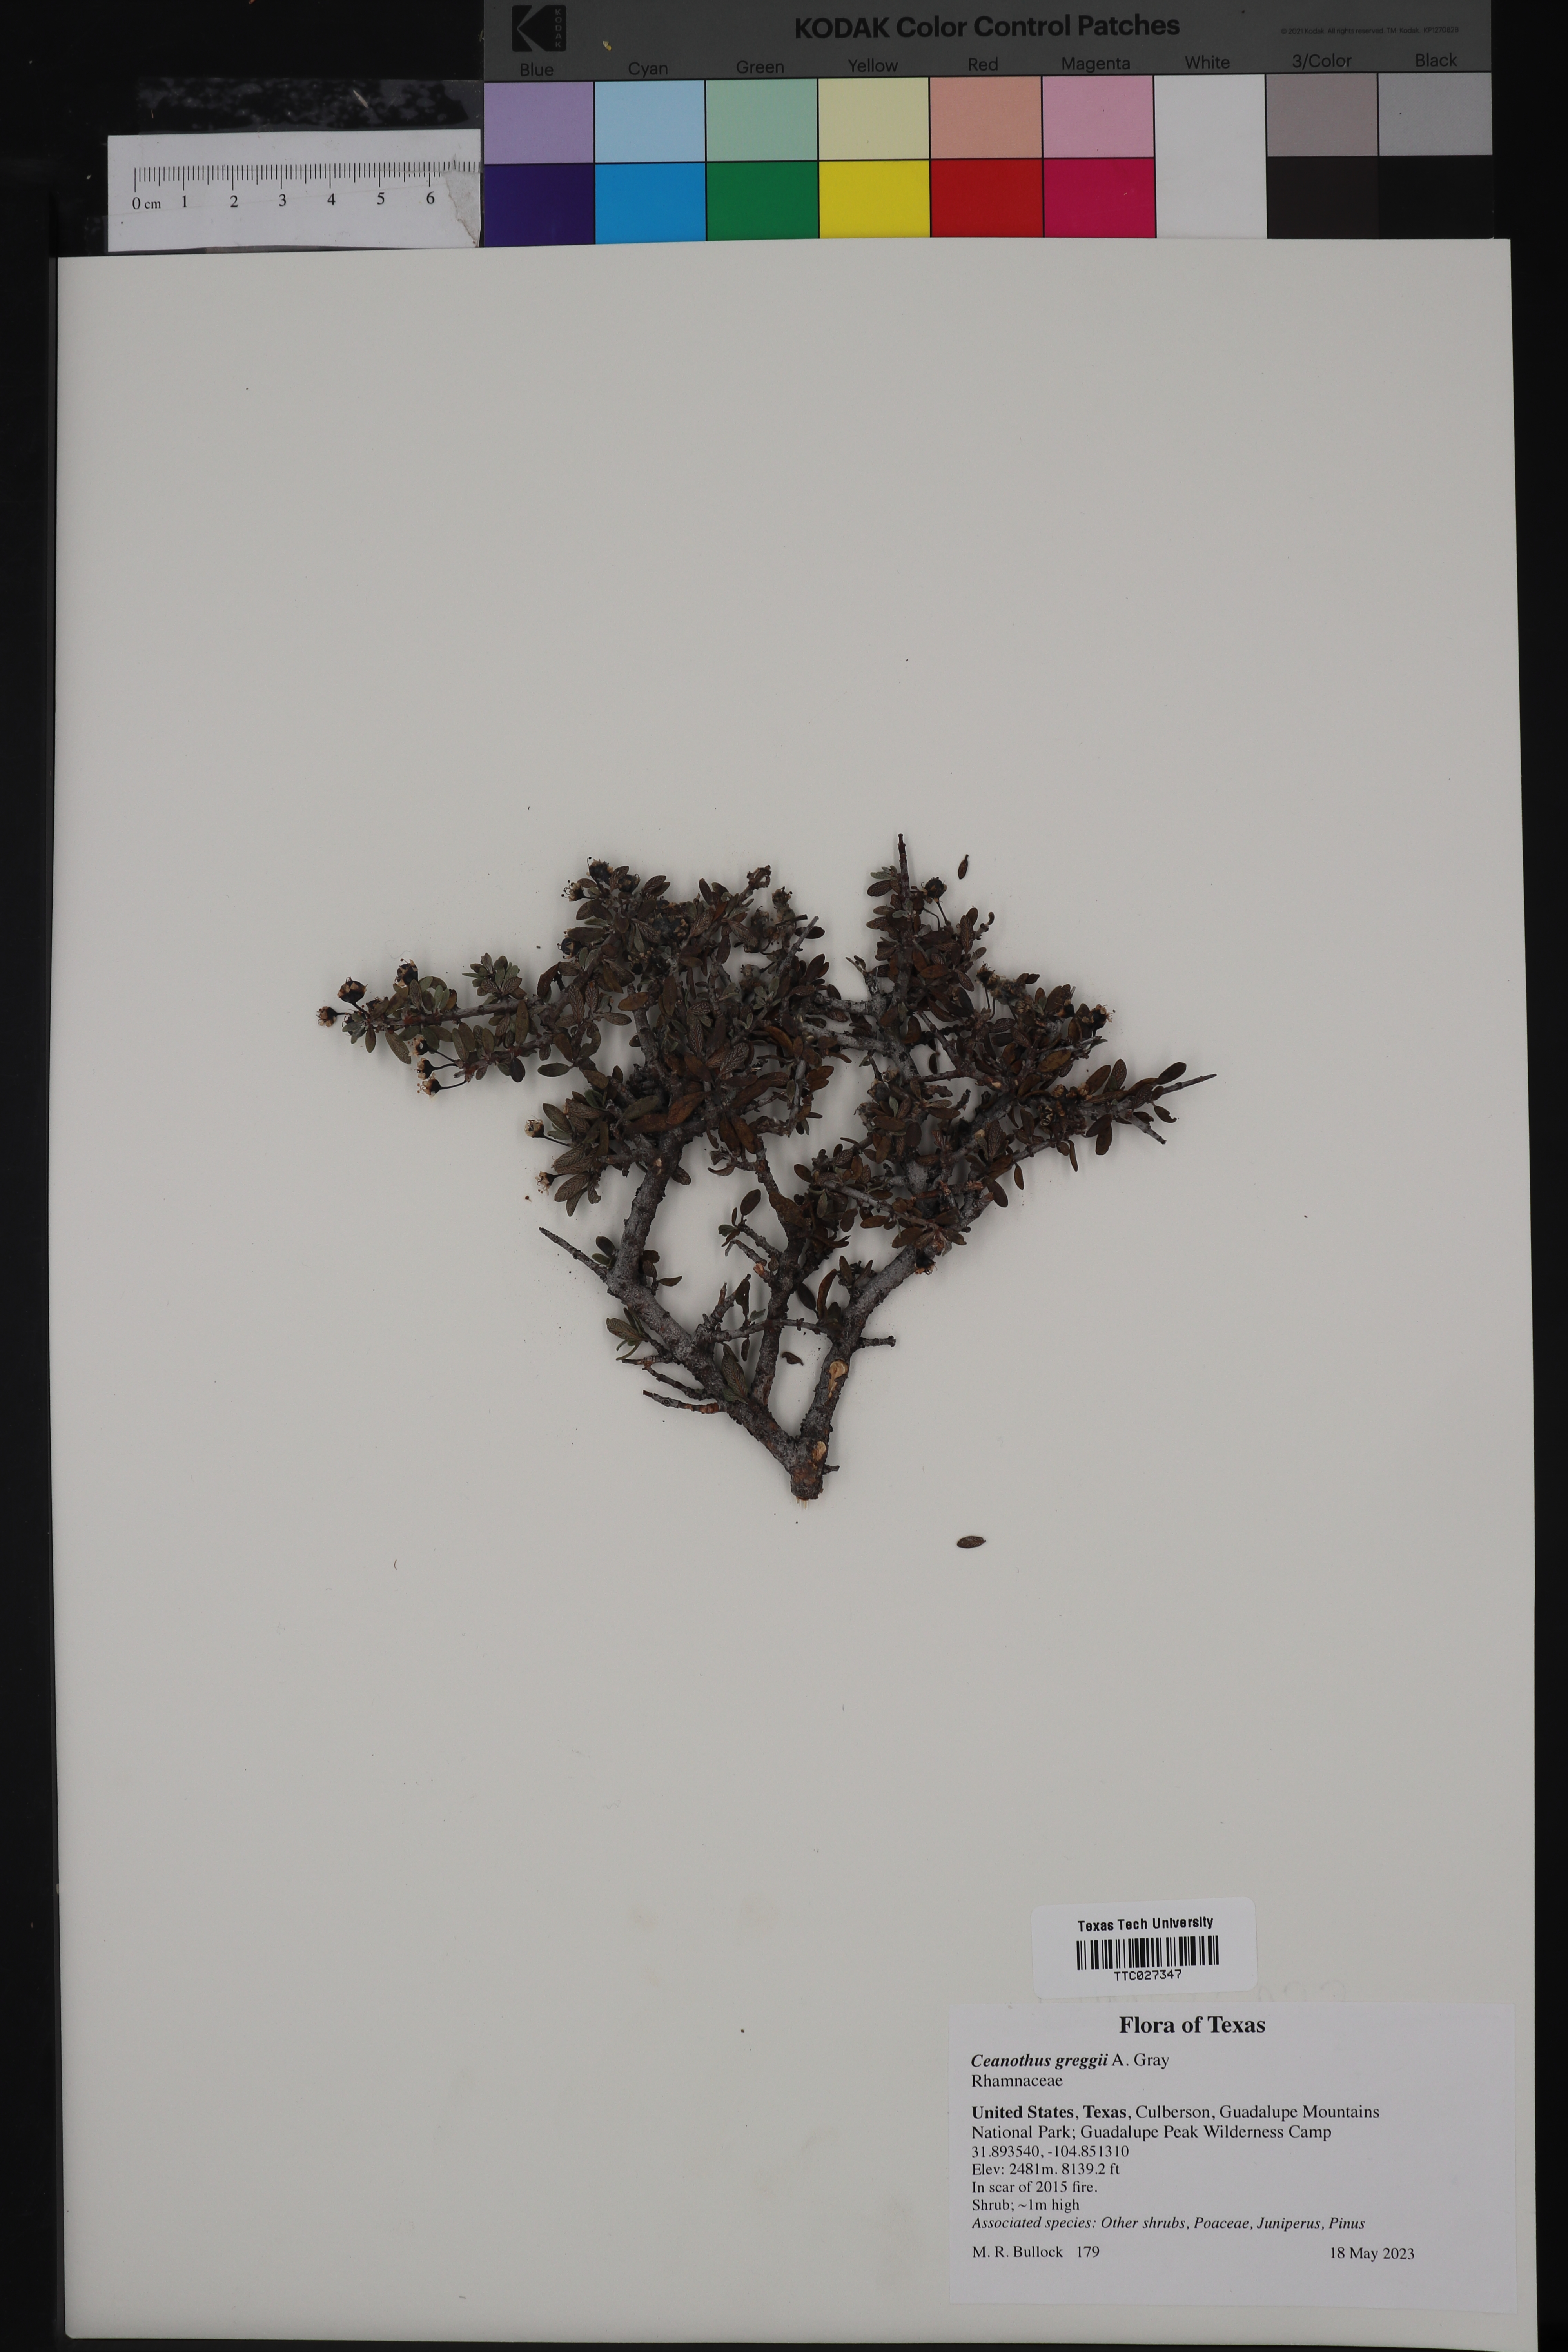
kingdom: Plantae
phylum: Tracheophyta
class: Magnoliopsida
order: Rosales
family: Rhamnaceae
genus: Ceanothus
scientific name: Ceanothus pauciflorus
